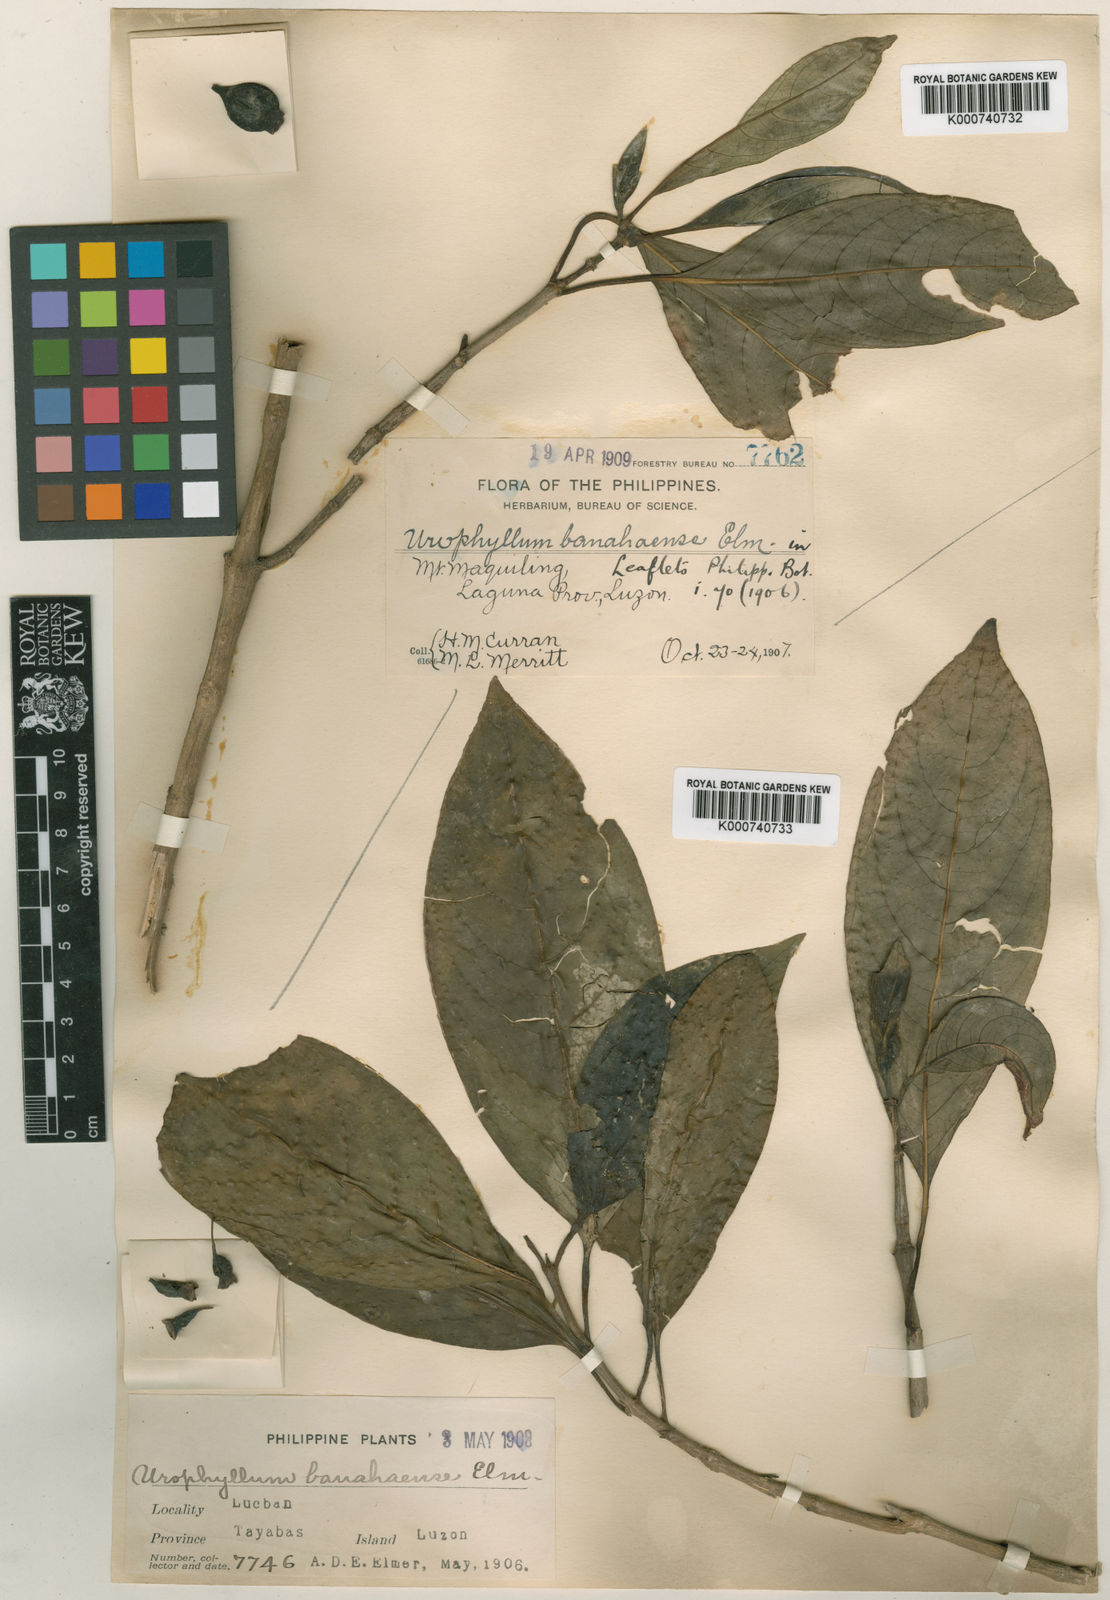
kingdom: Plantae
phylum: Tracheophyta
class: Magnoliopsida
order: Gentianales
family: Rubiaceae
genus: Antherostele
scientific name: Antherostele banahaensis
